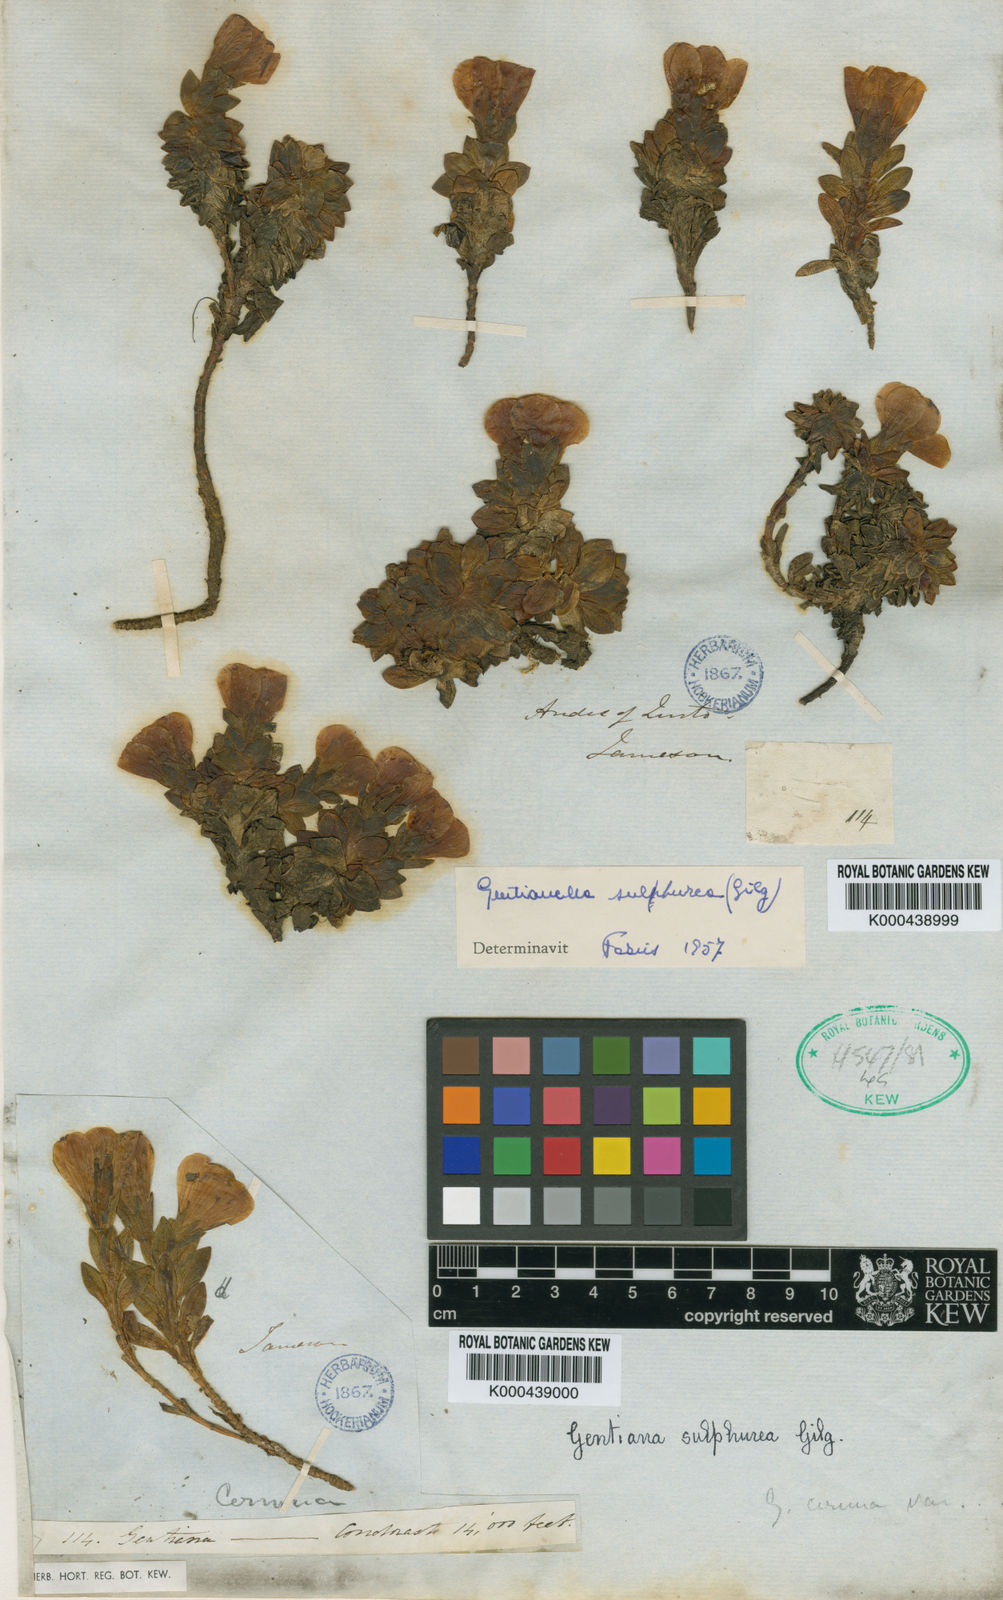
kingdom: Plantae
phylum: Tracheophyta
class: Magnoliopsida
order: Gentianales
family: Gentianaceae
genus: Gentianella
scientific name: Gentianella sulphurea
